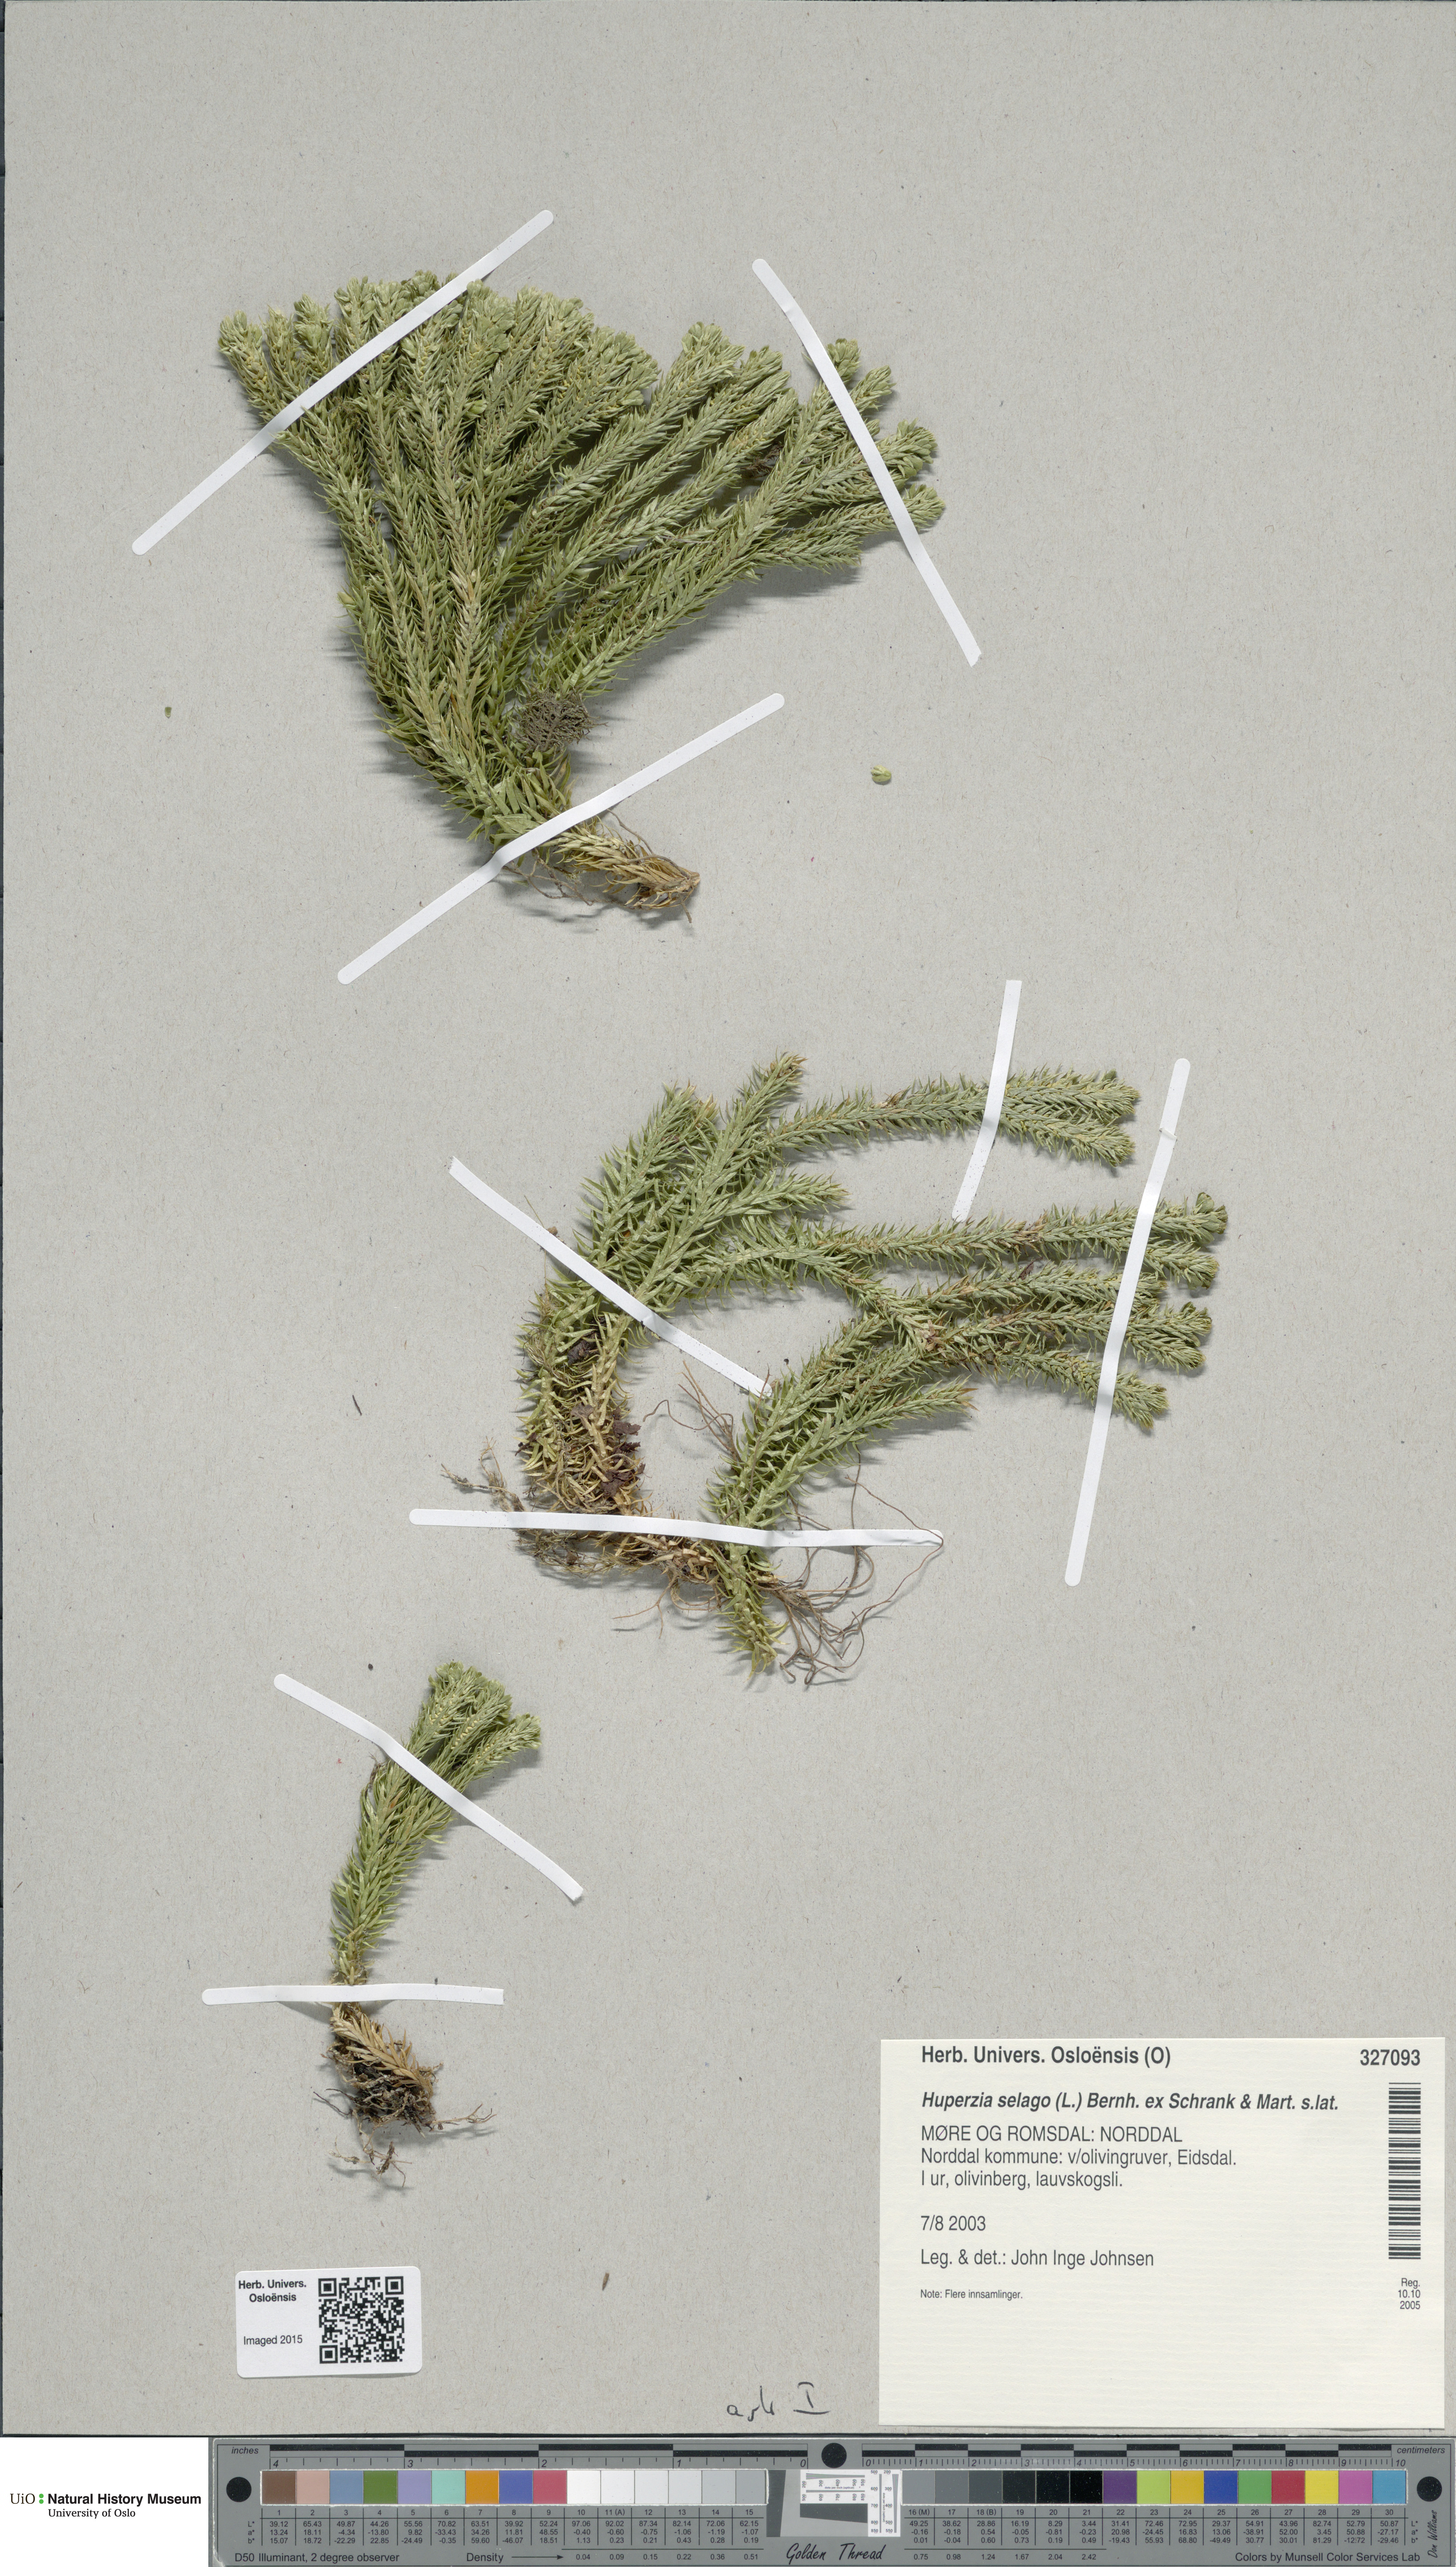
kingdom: Plantae
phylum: Tracheophyta
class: Lycopodiopsida
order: Lycopodiales
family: Lycopodiaceae
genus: Huperzia
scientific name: Huperzia selago
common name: Northern firmoss
